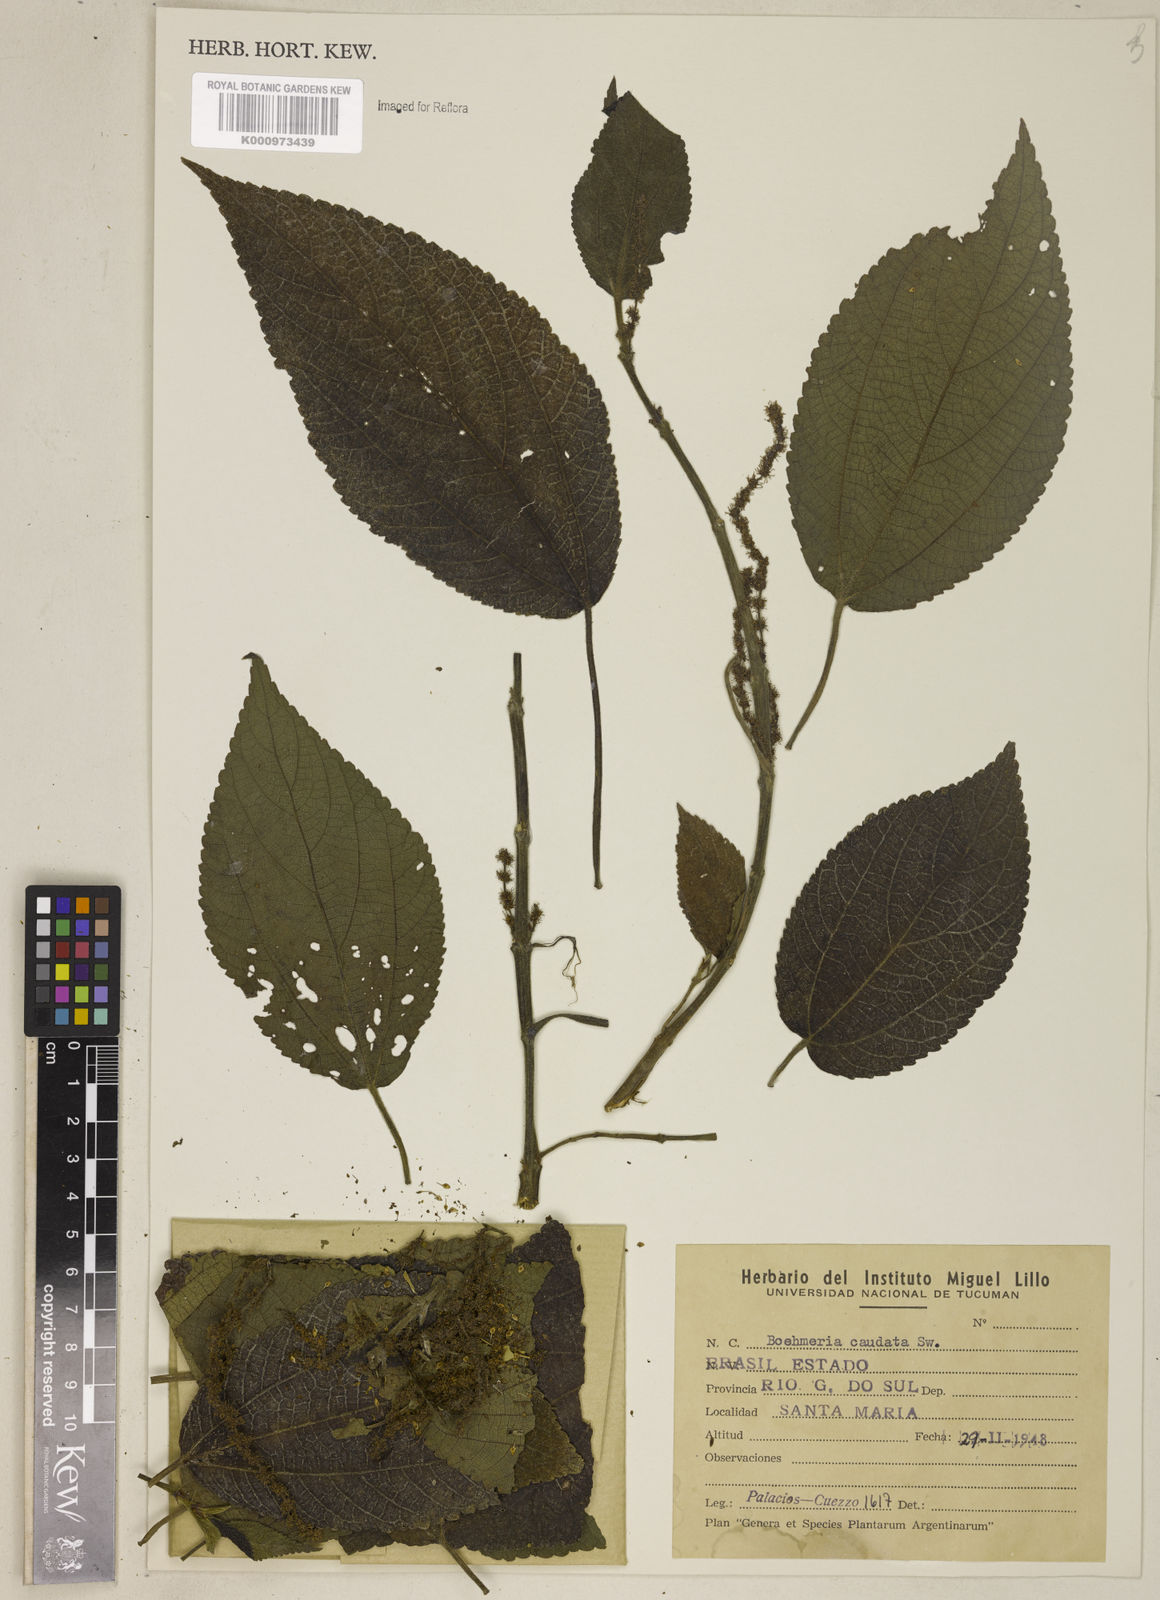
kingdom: Plantae
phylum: Tracheophyta
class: Magnoliopsida
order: Rosales
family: Urticaceae
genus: Boehmeria
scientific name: Boehmeria caudata
